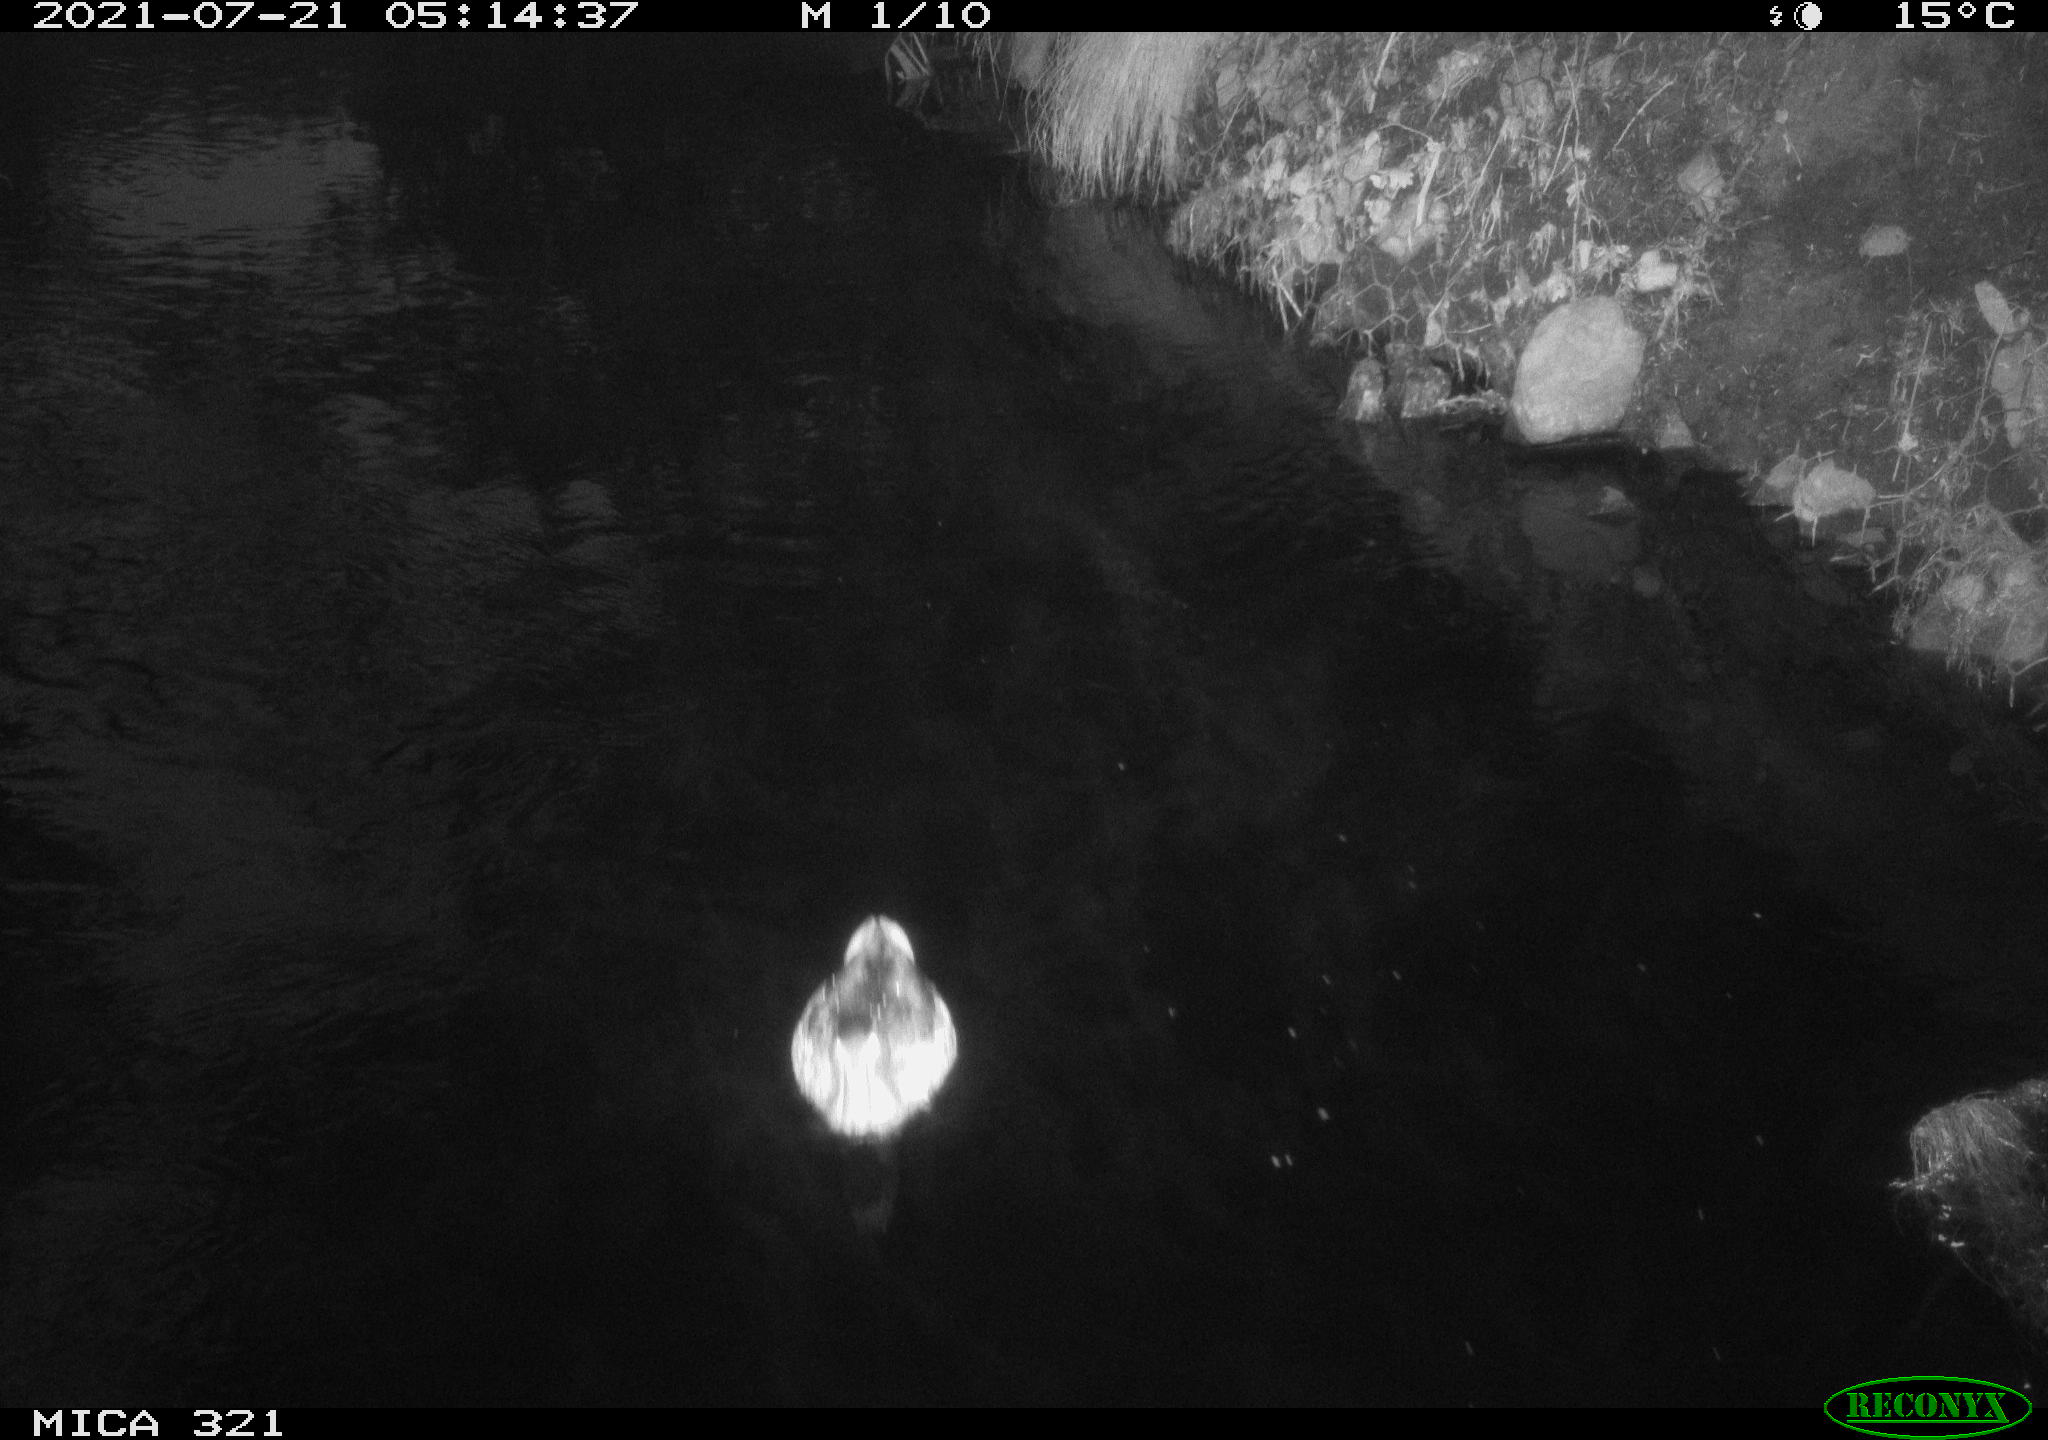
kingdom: Animalia
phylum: Chordata
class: Aves
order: Anseriformes
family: Anatidae
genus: Anas
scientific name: Anas platyrhynchos
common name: Mallard
